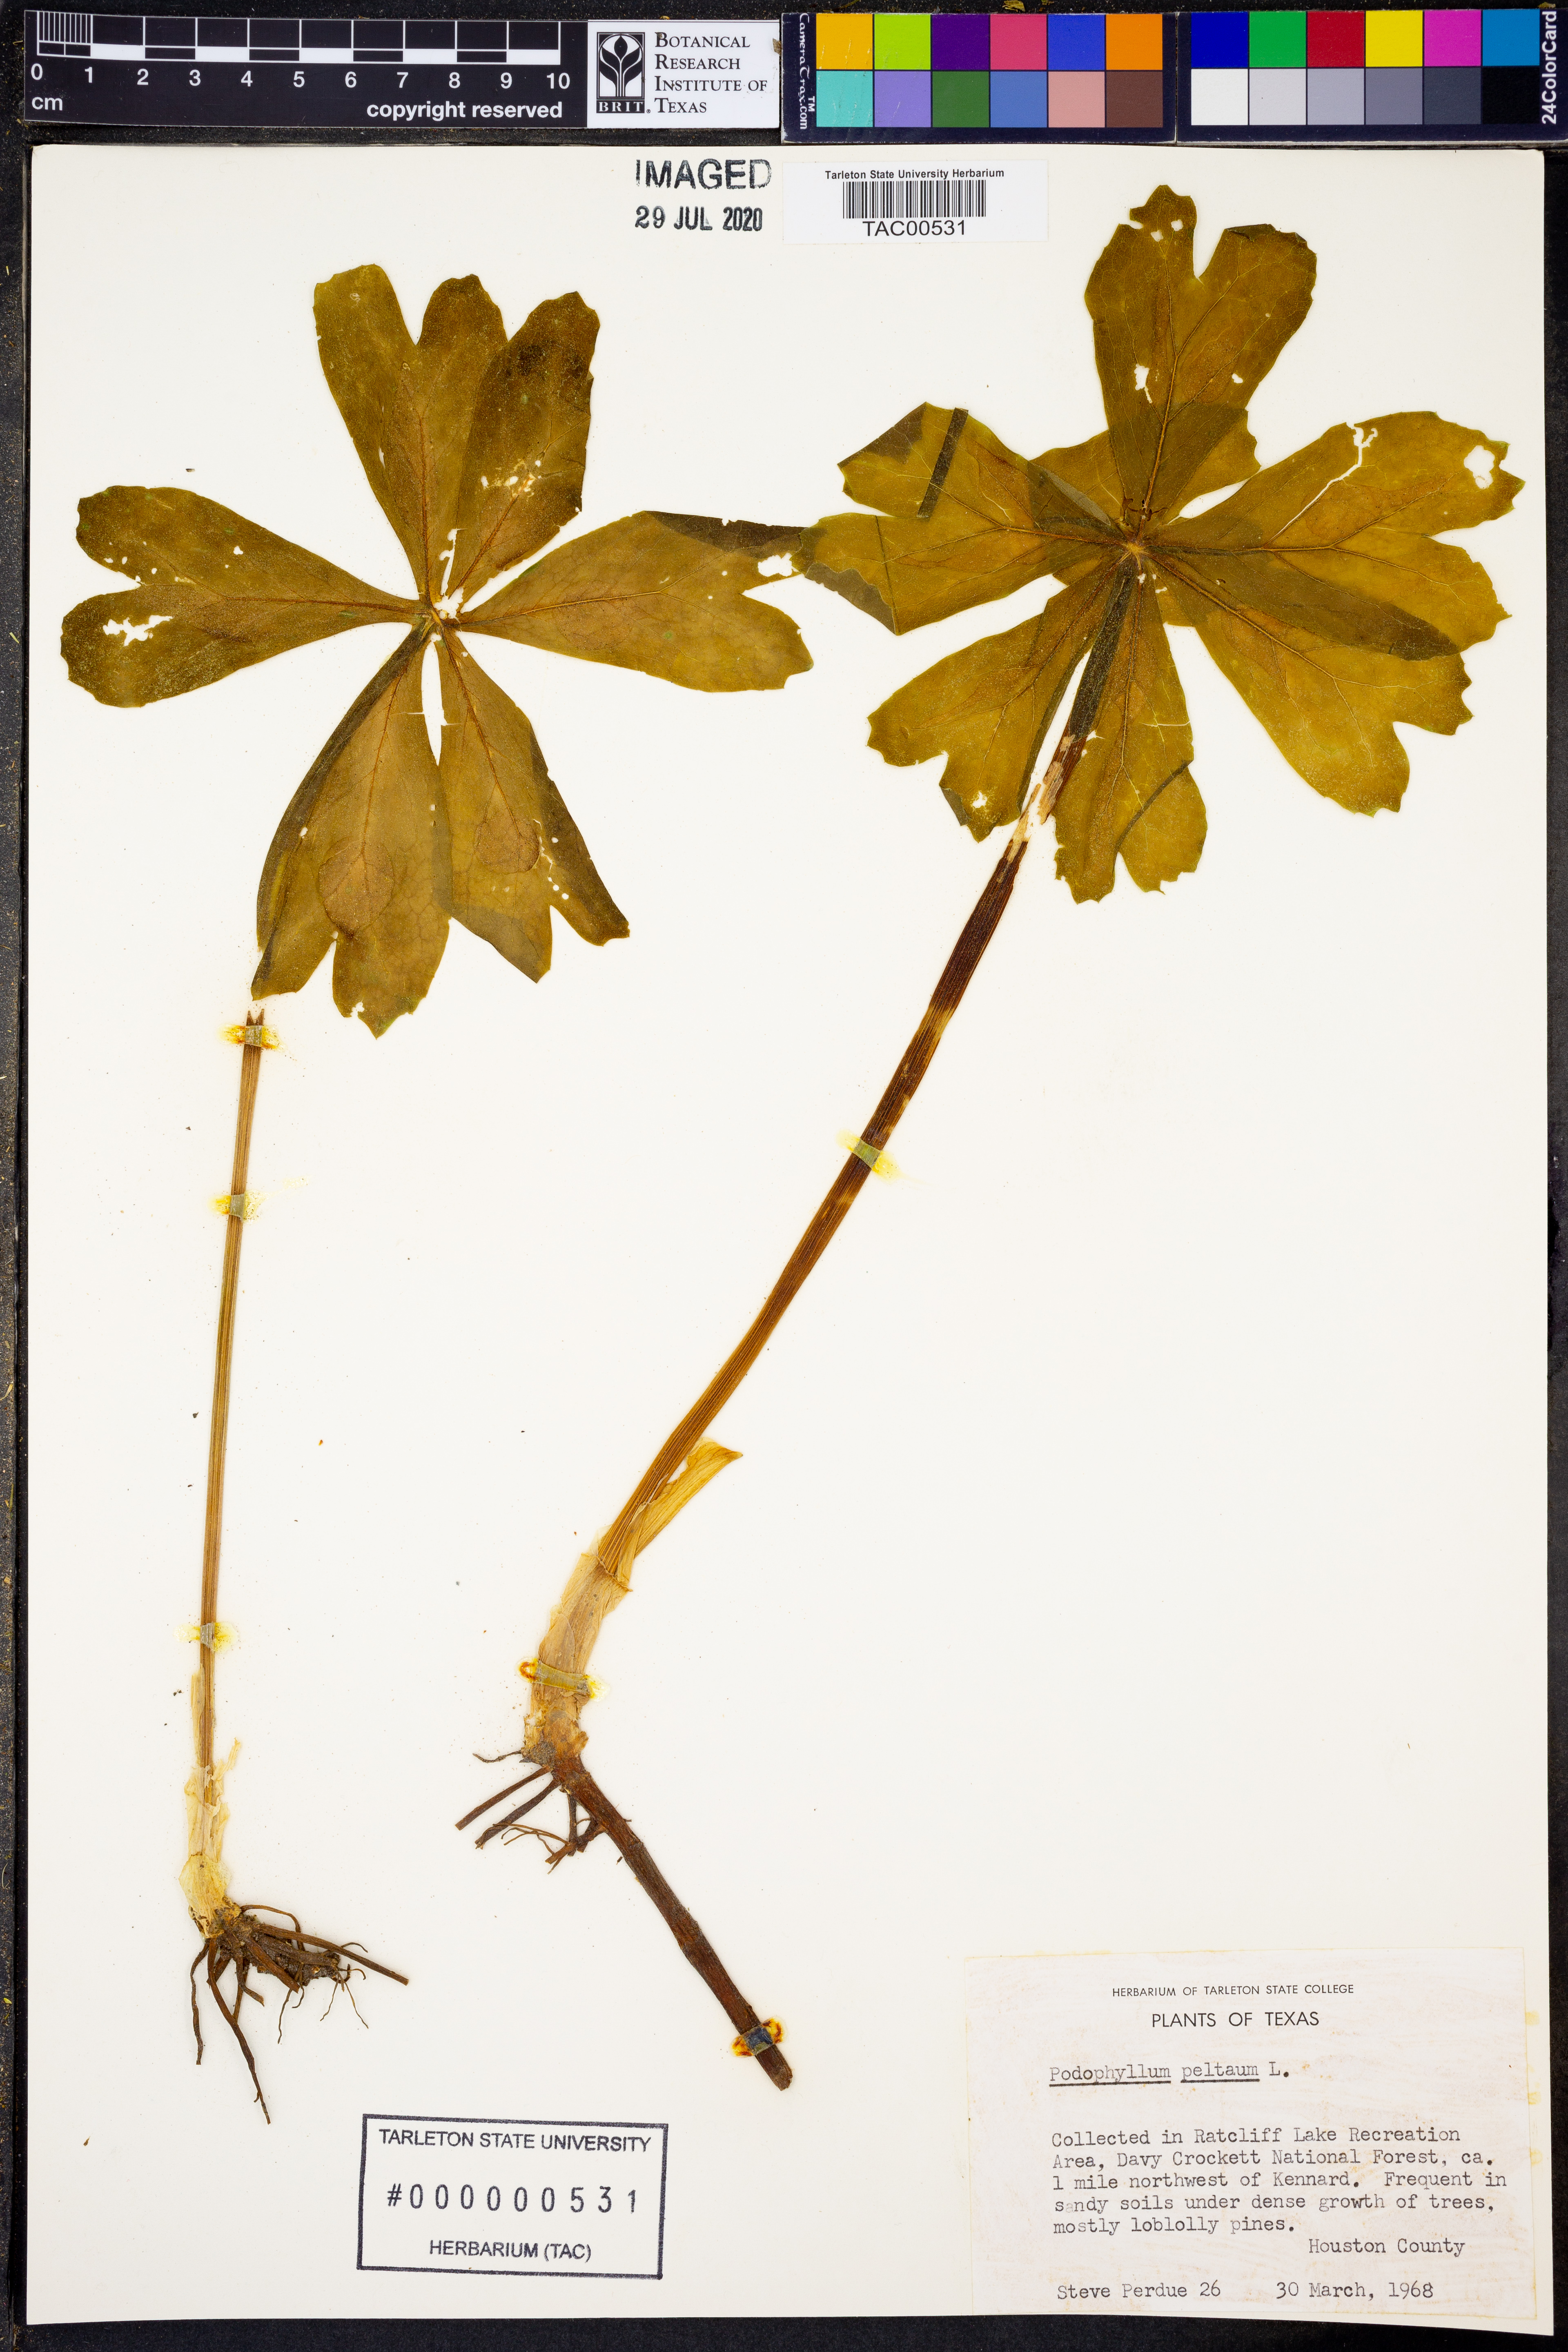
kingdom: Plantae
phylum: Tracheophyta
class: Magnoliopsida
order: Ranunculales
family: Berberidaceae
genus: Podophyllum
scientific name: Podophyllum peltatum
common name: Wild mandrake
